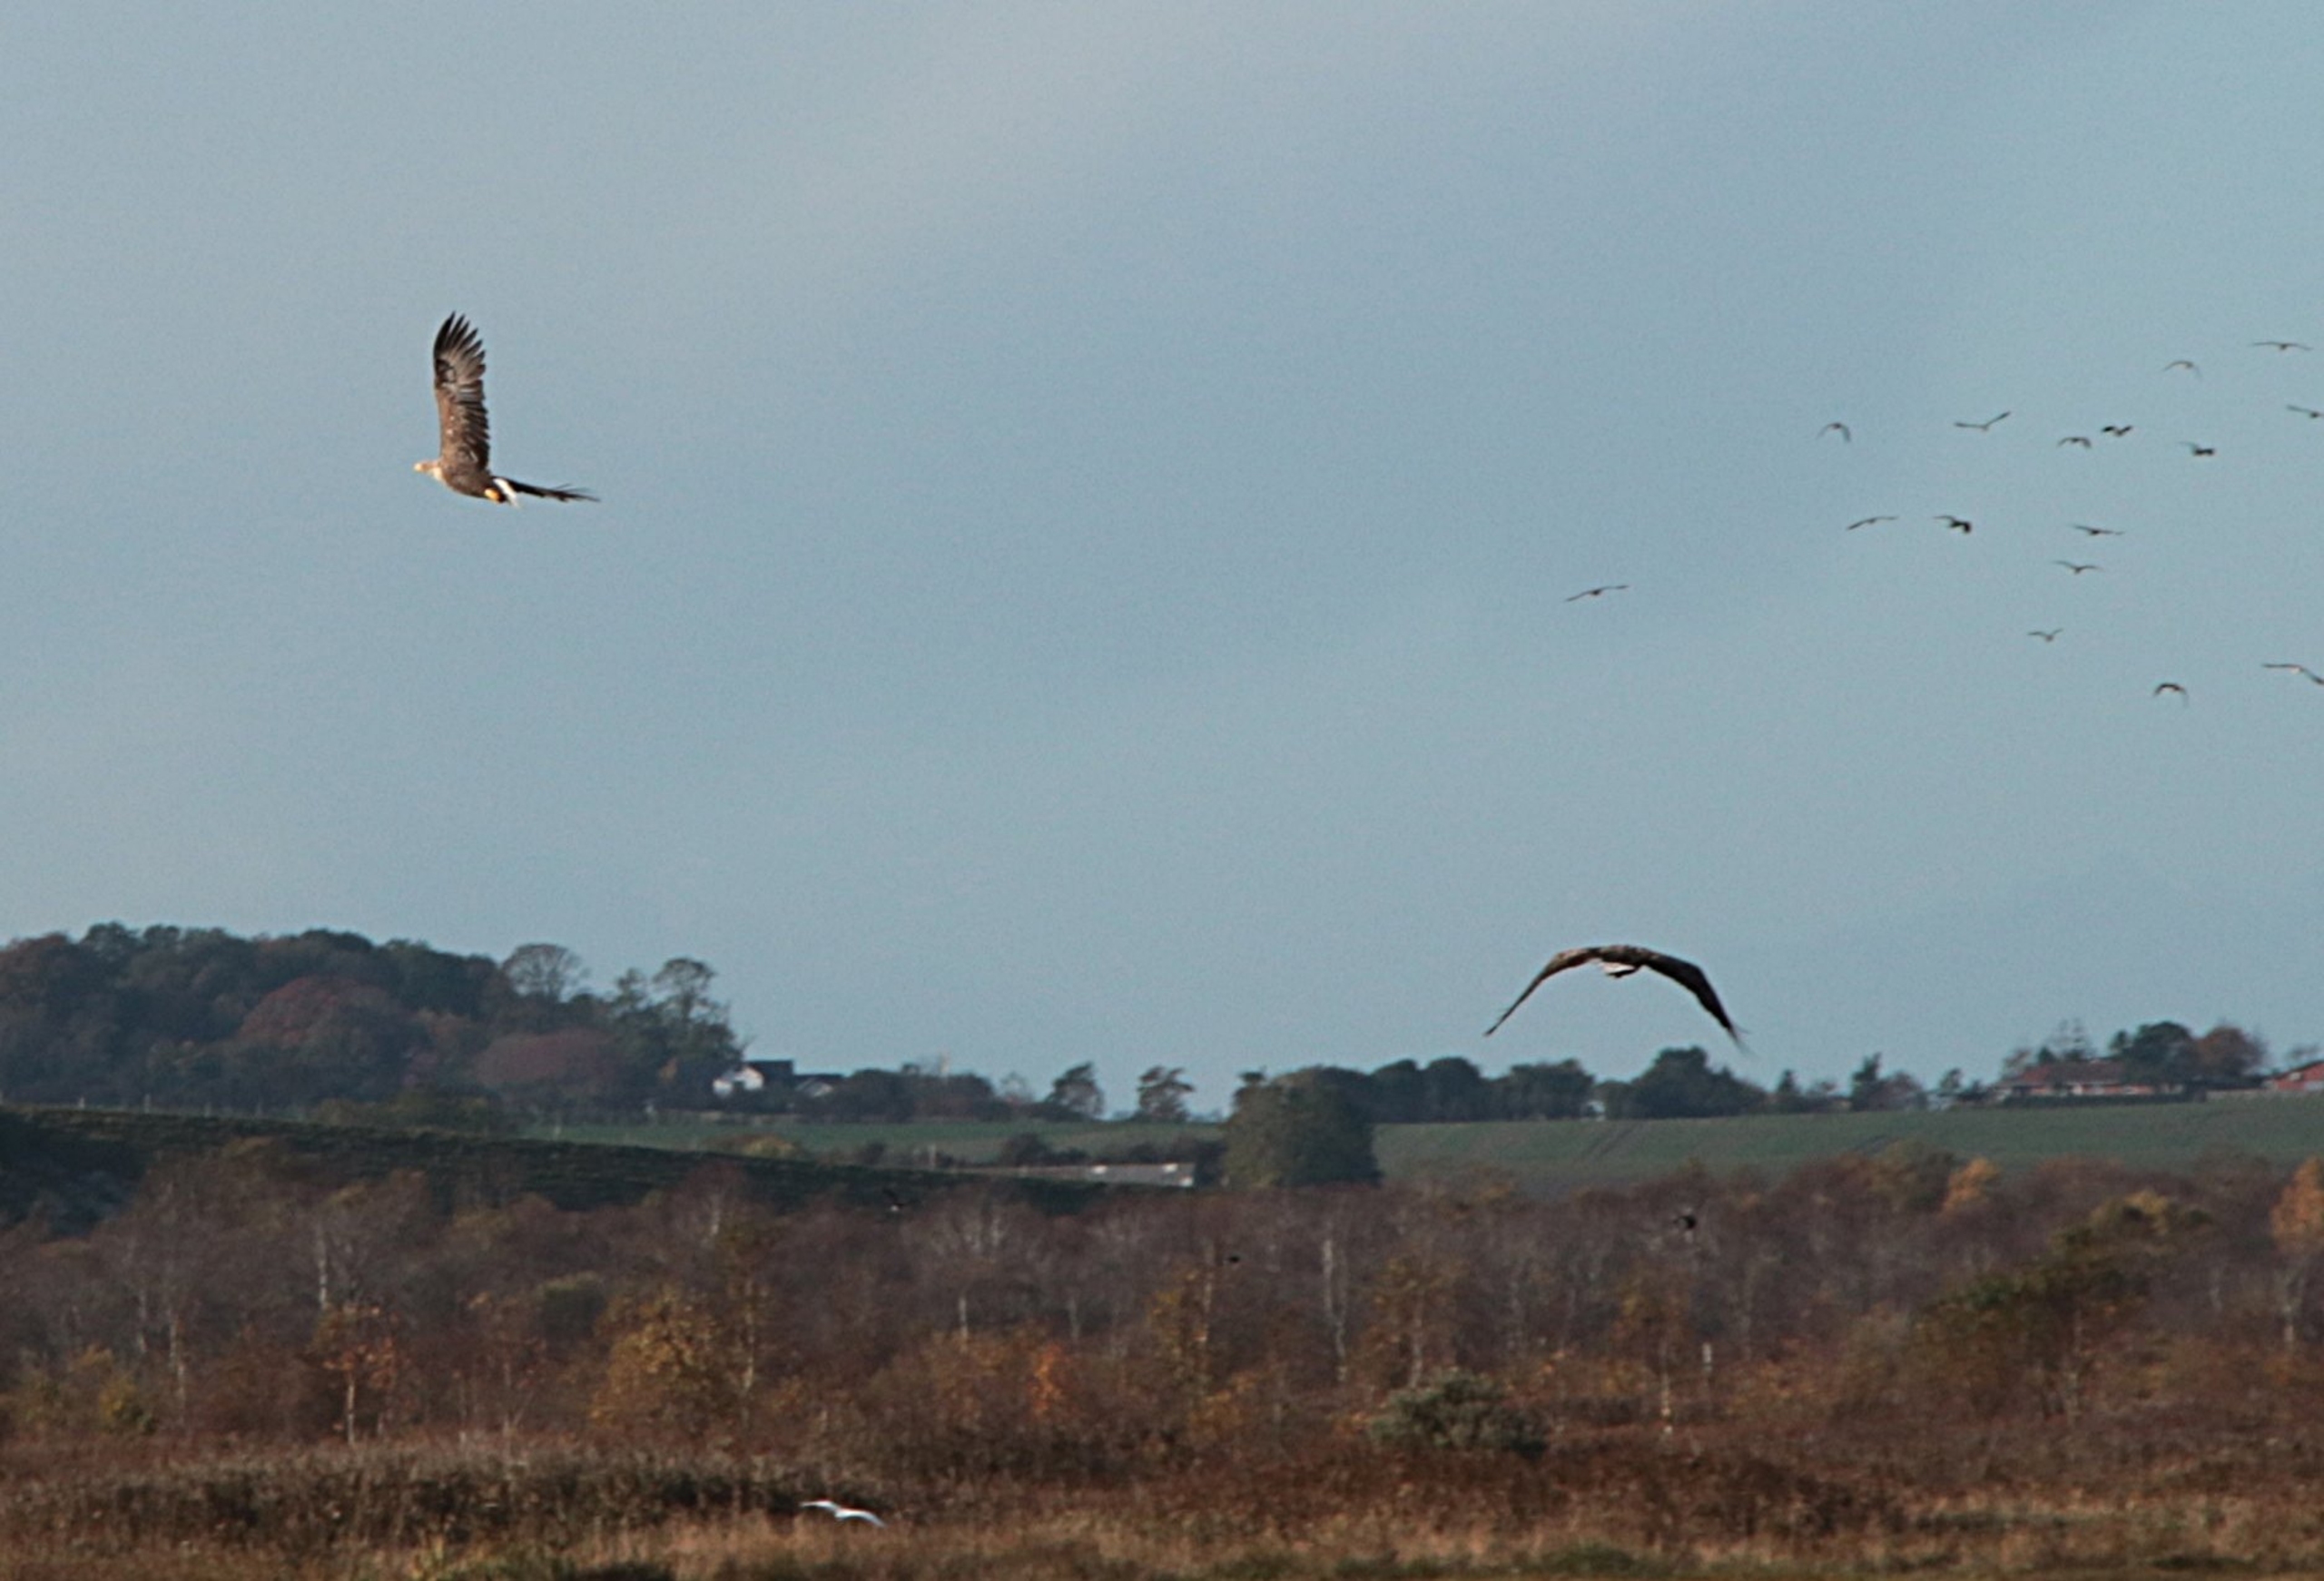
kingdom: Animalia
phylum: Chordata
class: Aves
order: Accipitriformes
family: Accipitridae
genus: Haliaeetus
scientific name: Haliaeetus albicilla
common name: Havørn
